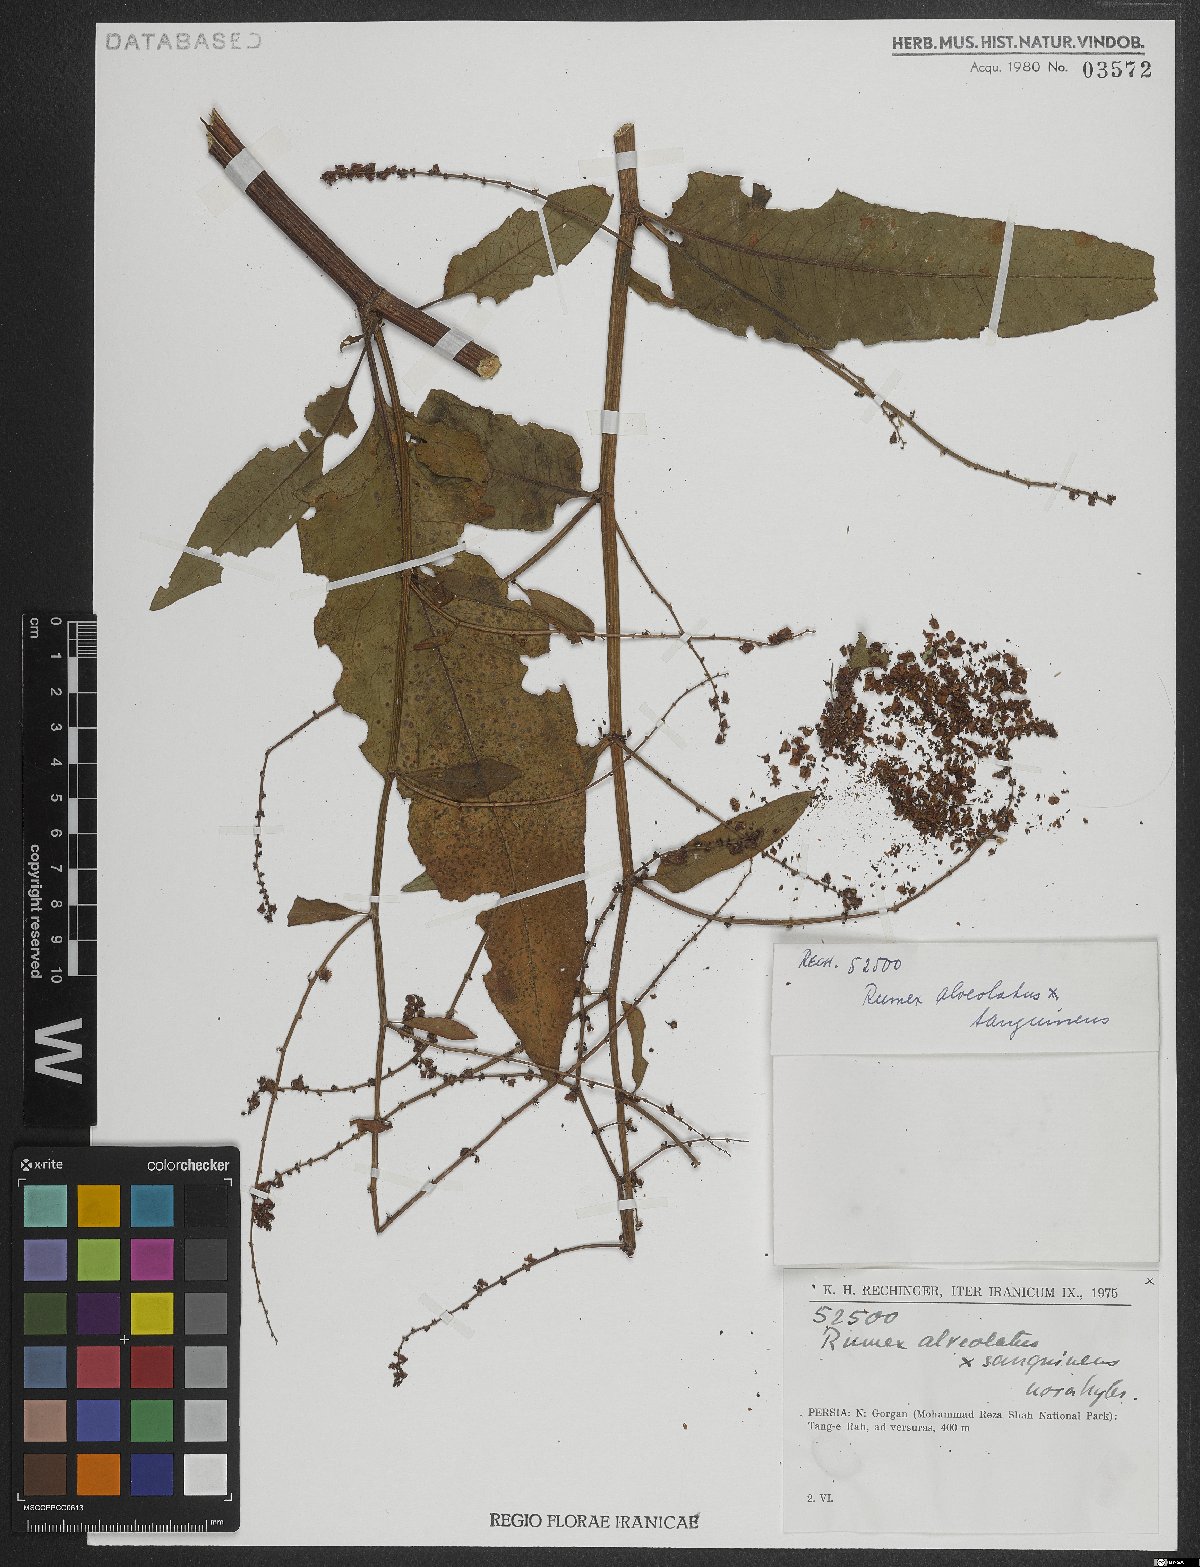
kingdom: Plantae
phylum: Tracheophyta
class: Magnoliopsida
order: Caryophyllales
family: Polygonaceae
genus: Rumex
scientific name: Rumex
